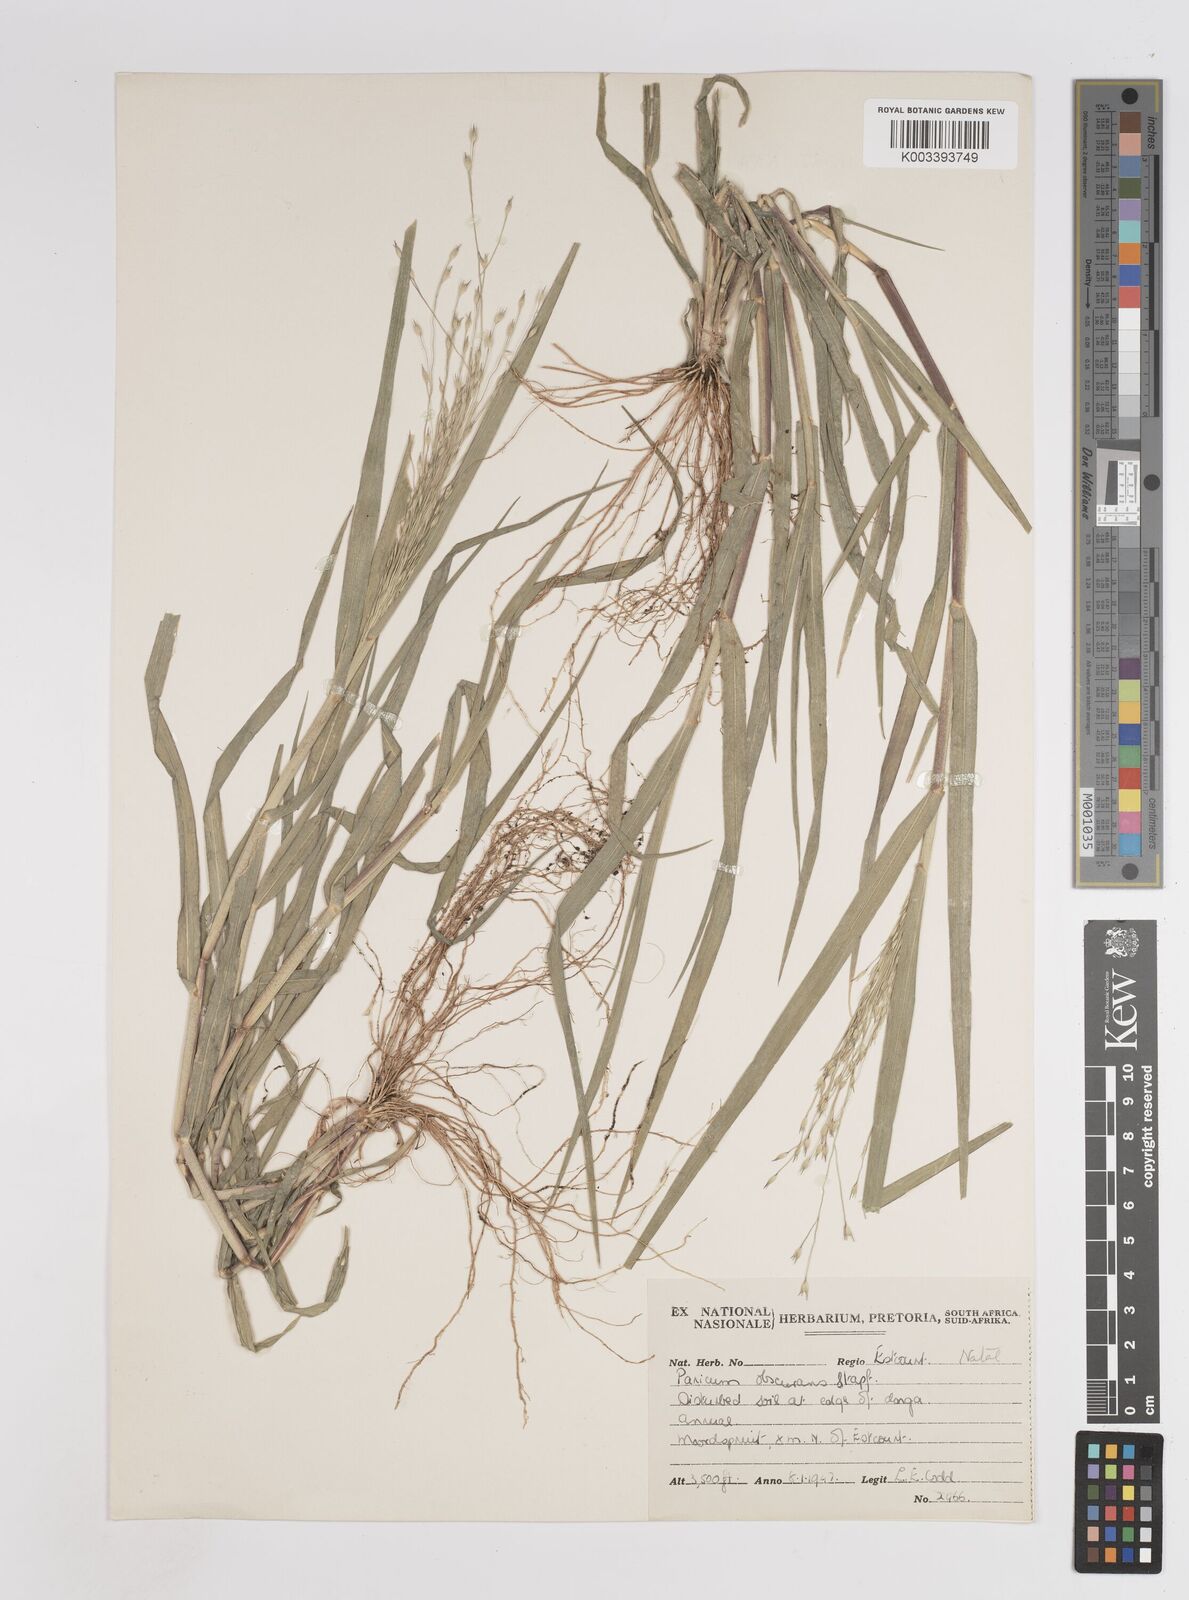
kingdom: Plantae
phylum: Tracheophyta
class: Liliopsida
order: Poales
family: Poaceae
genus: Panicum
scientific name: Panicum volutans
